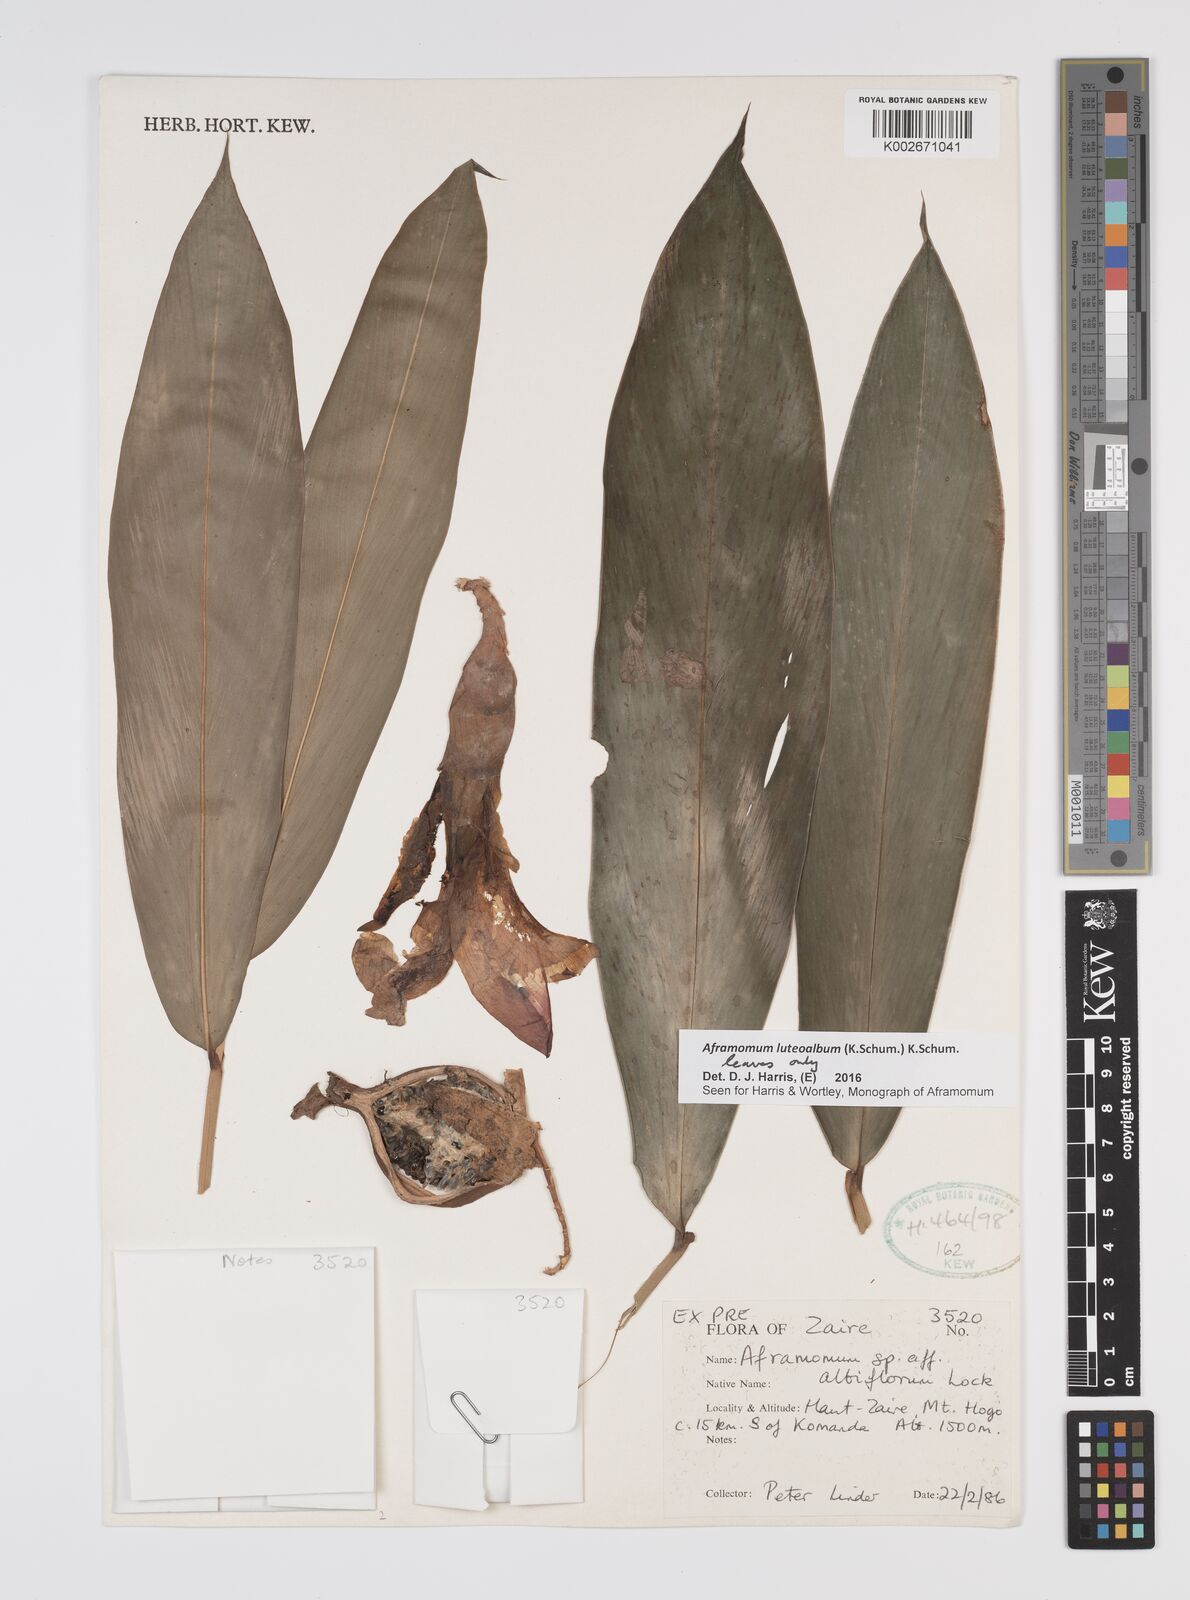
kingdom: Plantae
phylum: Tracheophyta
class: Liliopsida
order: Zingiberales
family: Zingiberaceae
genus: Aframomum
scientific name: Aframomum luteoalbum
